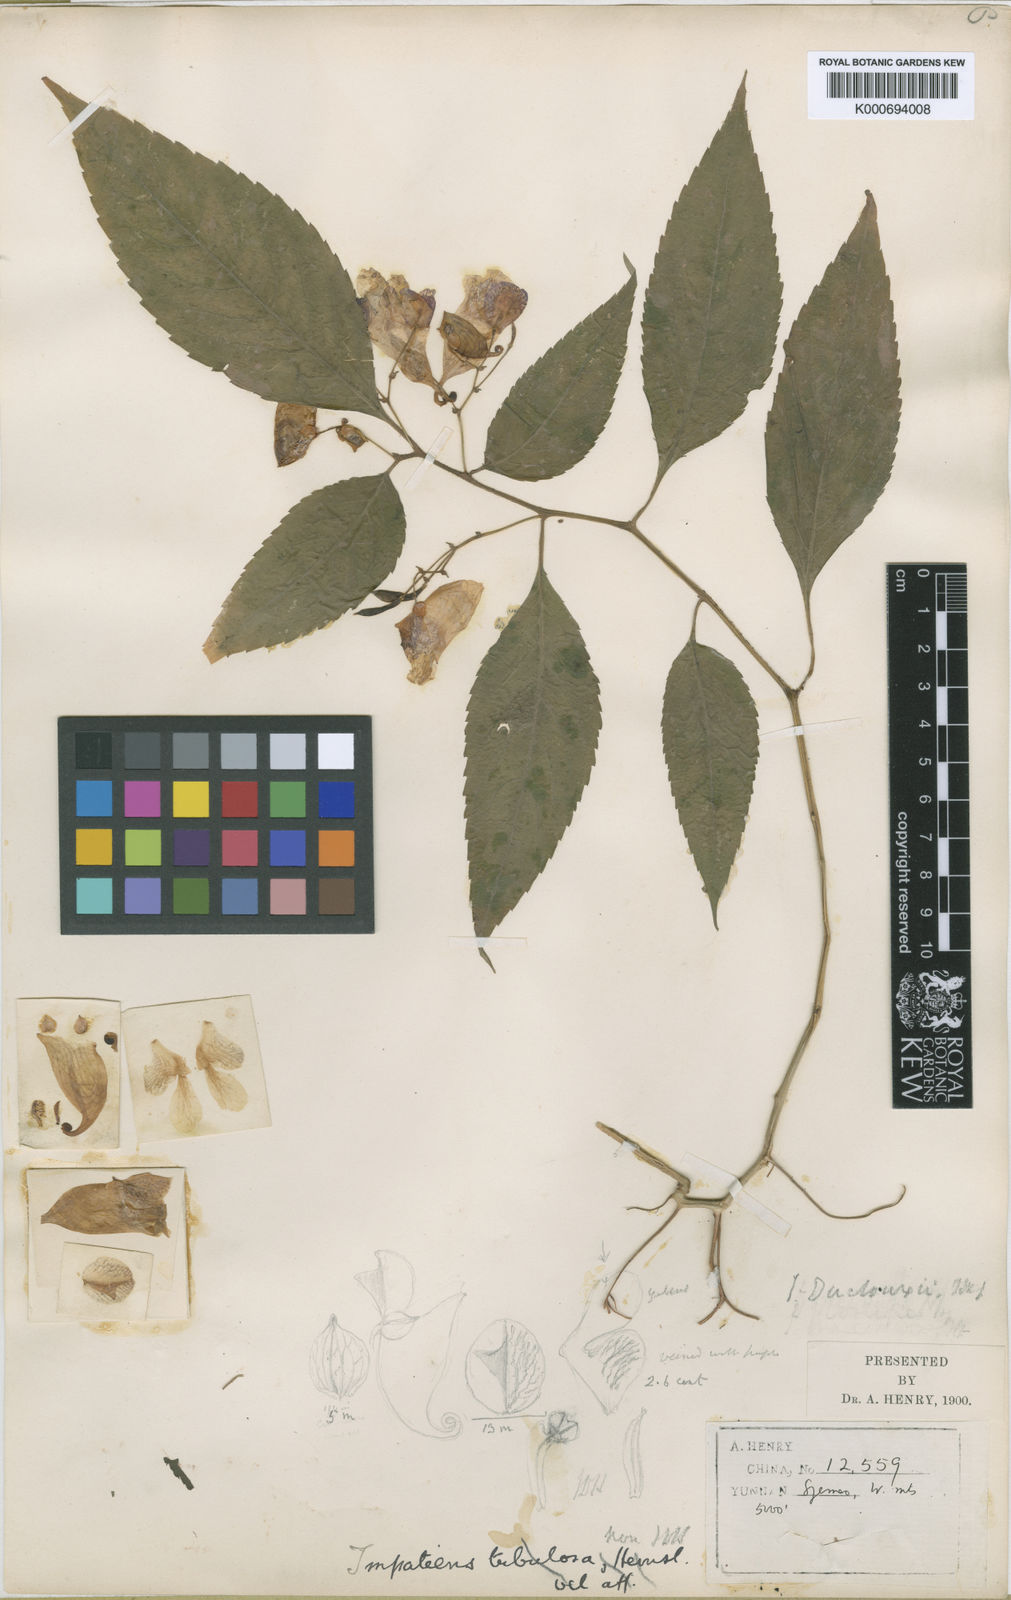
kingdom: Plantae
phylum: Tracheophyta
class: Magnoliopsida
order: Ericales
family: Balsaminaceae
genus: Impatiens
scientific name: Impatiens duclouxii
